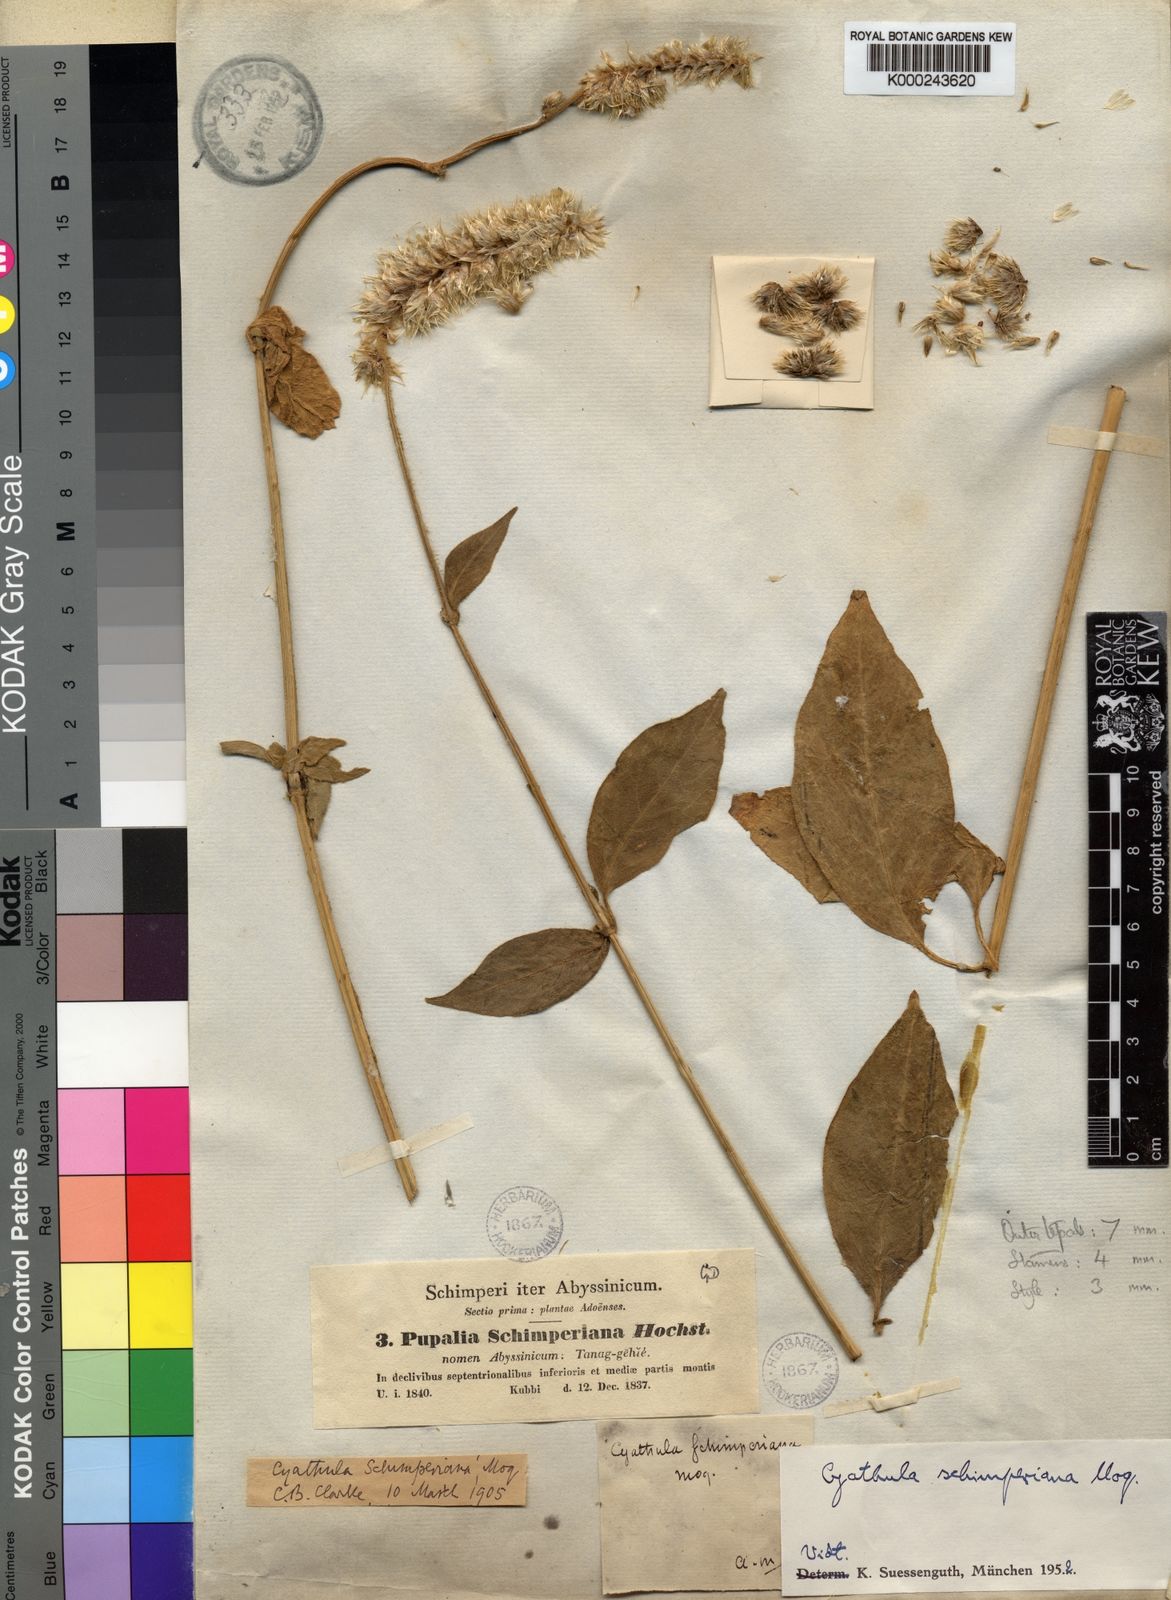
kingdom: Plantae
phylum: Tracheophyta
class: Magnoliopsida
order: Caryophyllales
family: Amaranthaceae
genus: Cyathula
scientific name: Cyathula cylindrica
